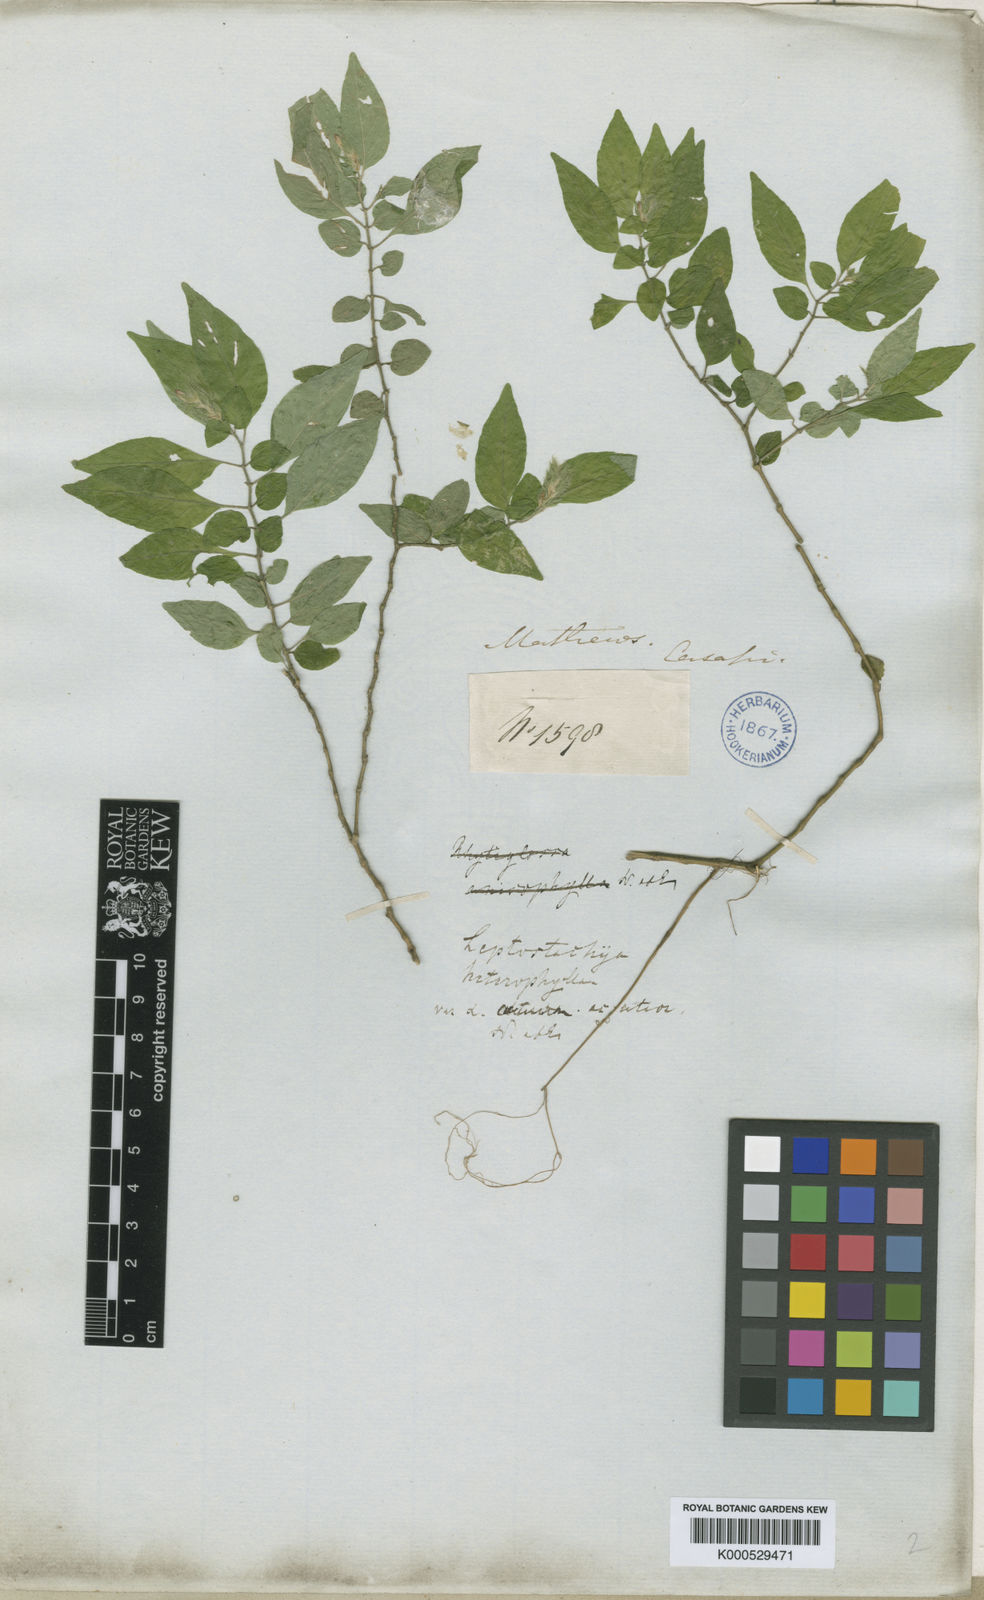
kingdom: Plantae
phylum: Tracheophyta
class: Magnoliopsida
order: Lamiales
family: Acanthaceae
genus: Justicia
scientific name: Justicia tarapotensis
